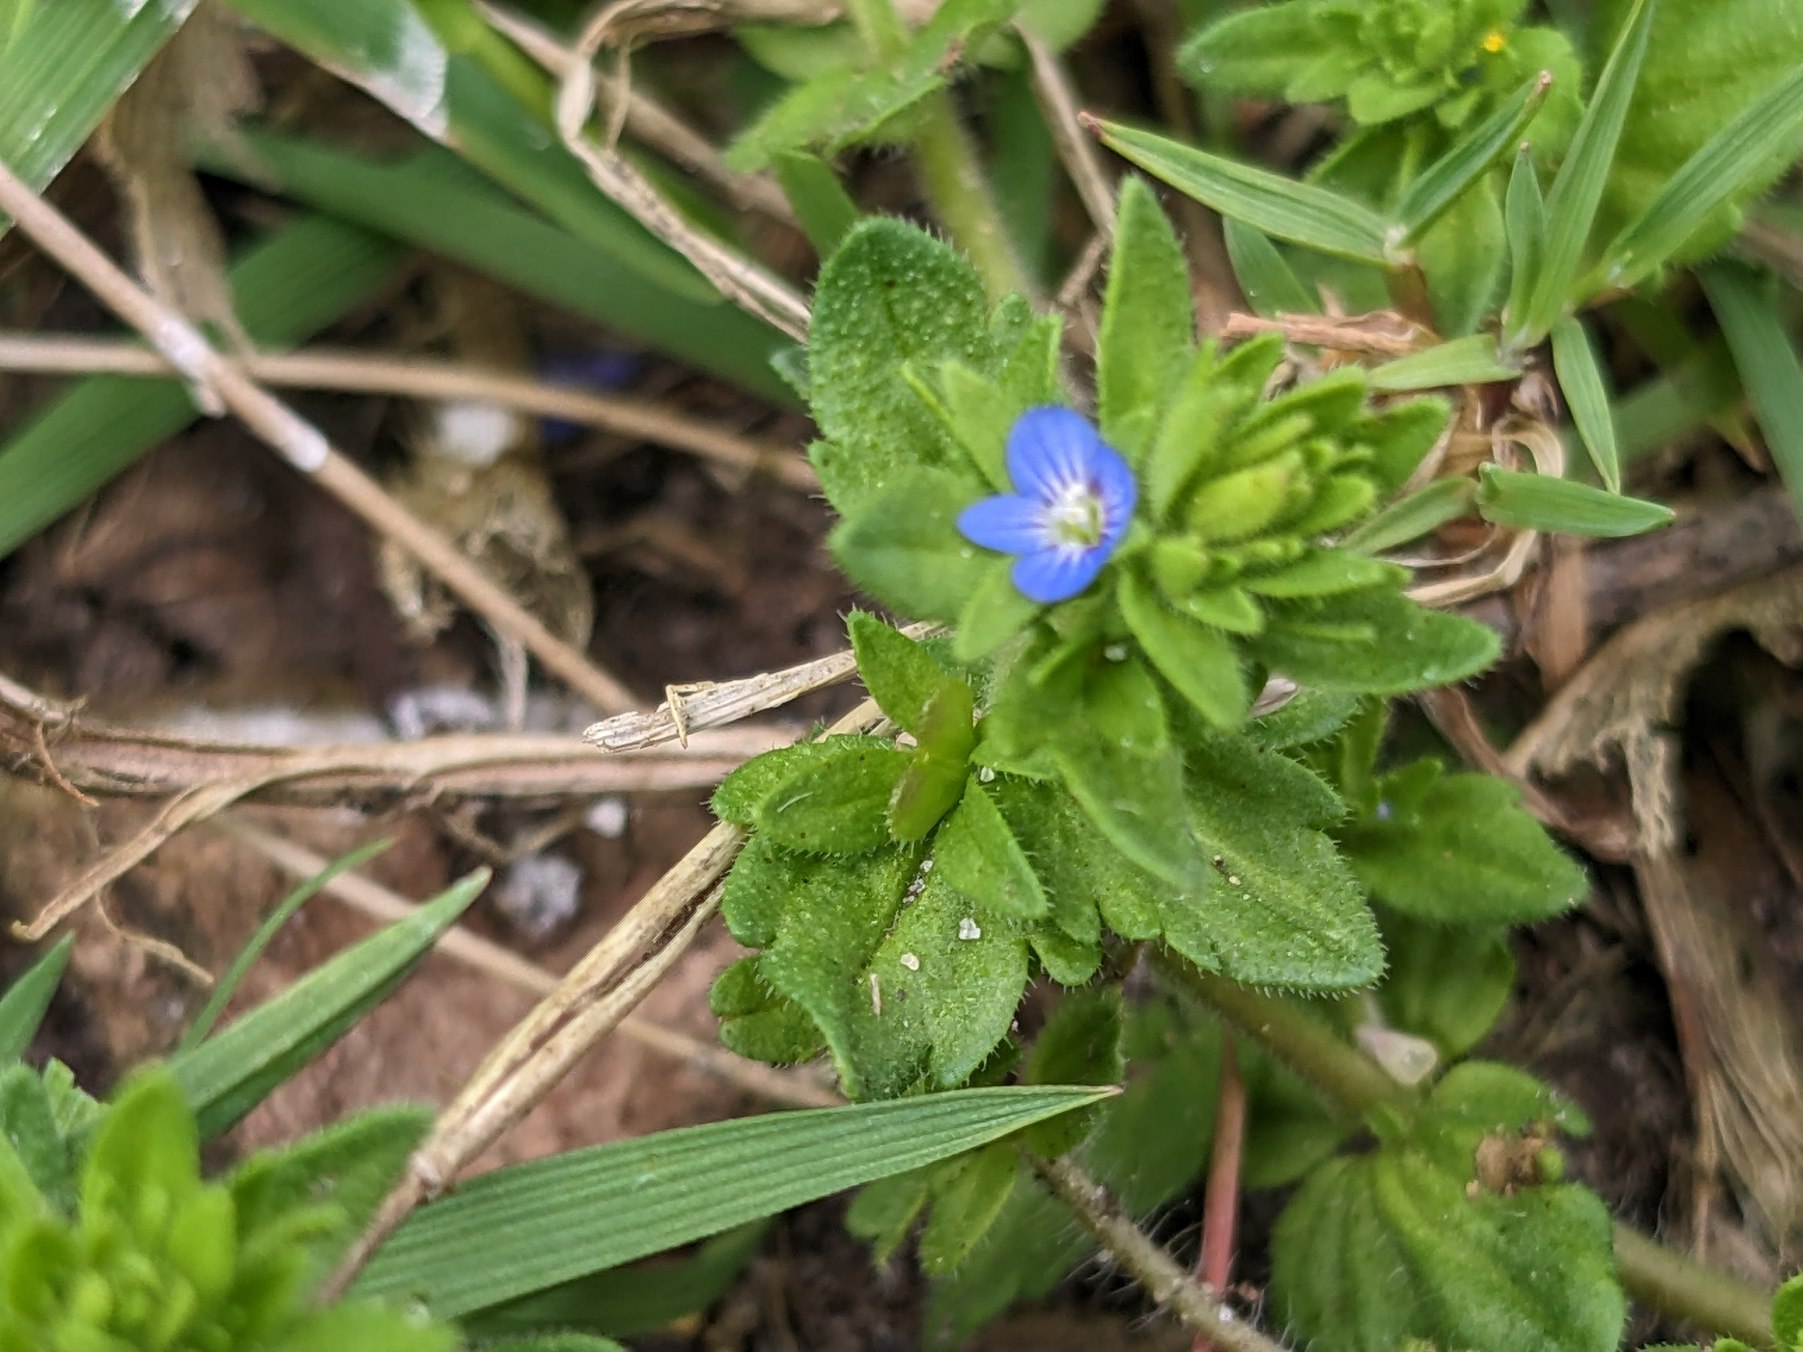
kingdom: Plantae
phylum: Tracheophyta
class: Magnoliopsida
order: Lamiales
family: Plantaginaceae
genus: Veronica
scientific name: Veronica arvensis
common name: Mark-ærenpris
